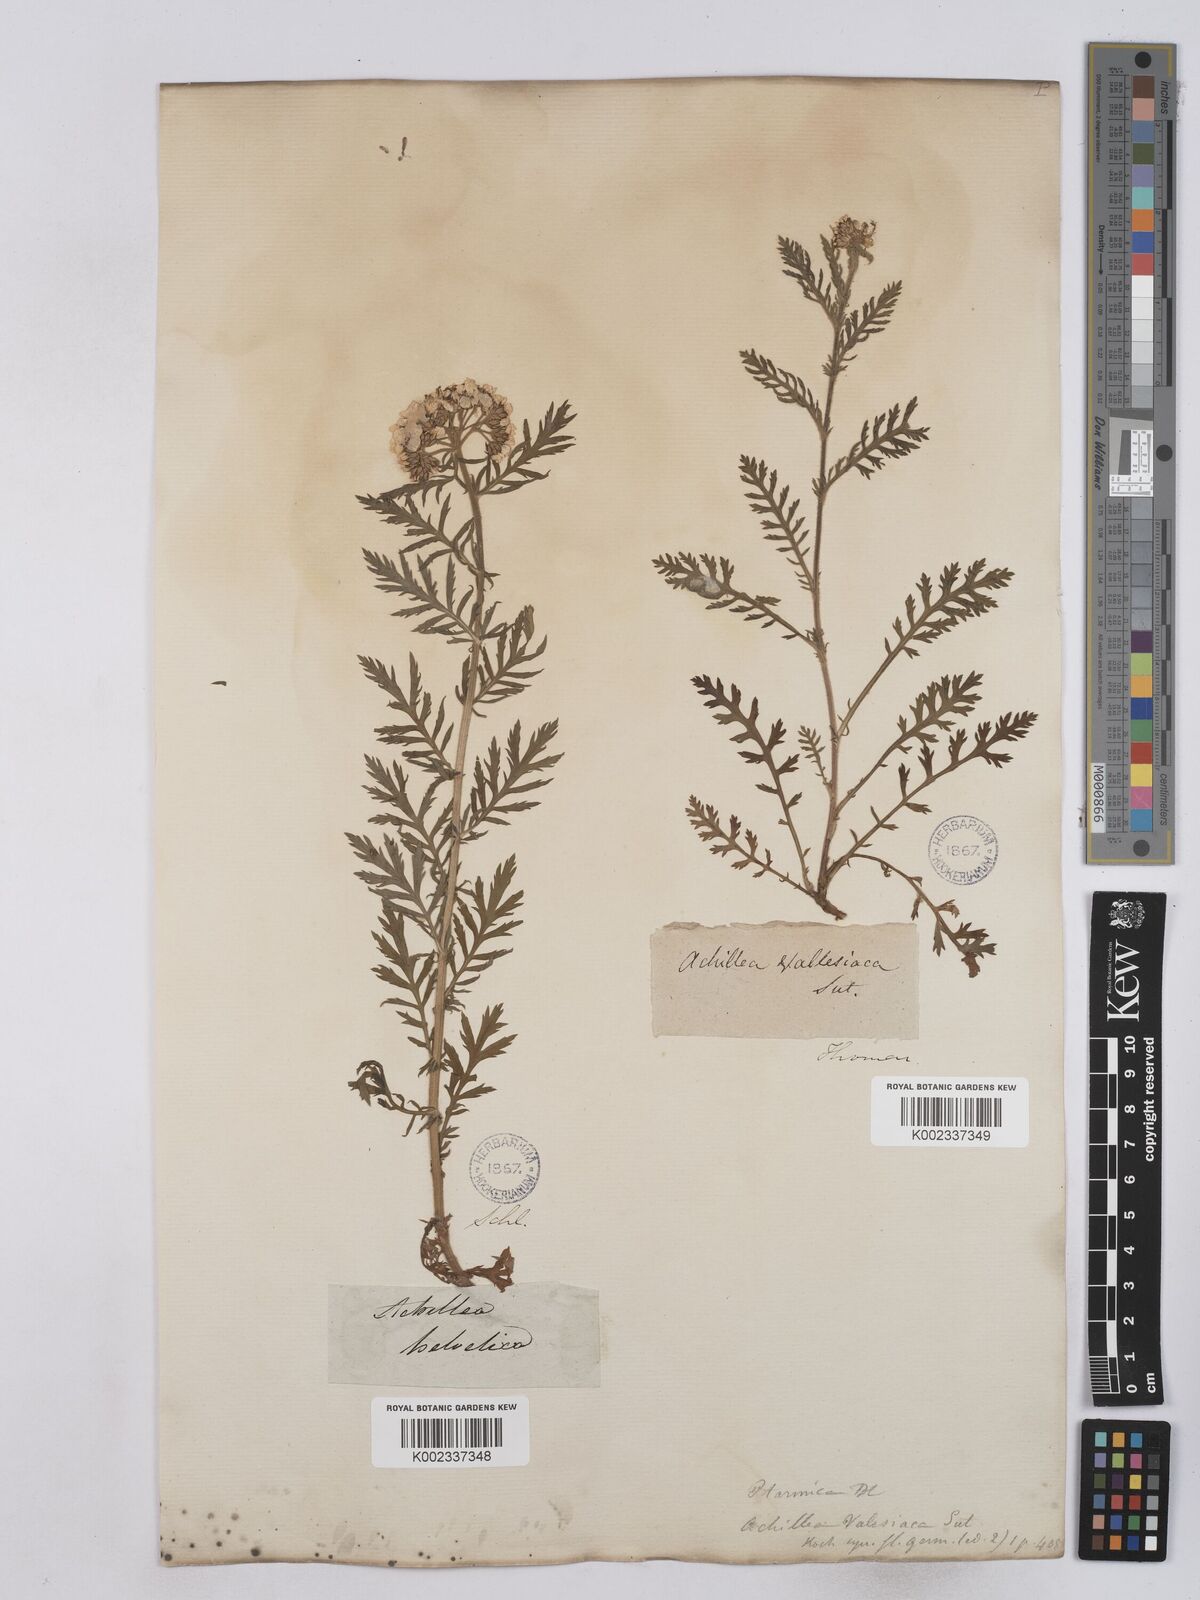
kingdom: Plantae
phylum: Tracheophyta
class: Magnoliopsida
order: Asterales
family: Asteraceae
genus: Achillea
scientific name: Achillea valesiaca
